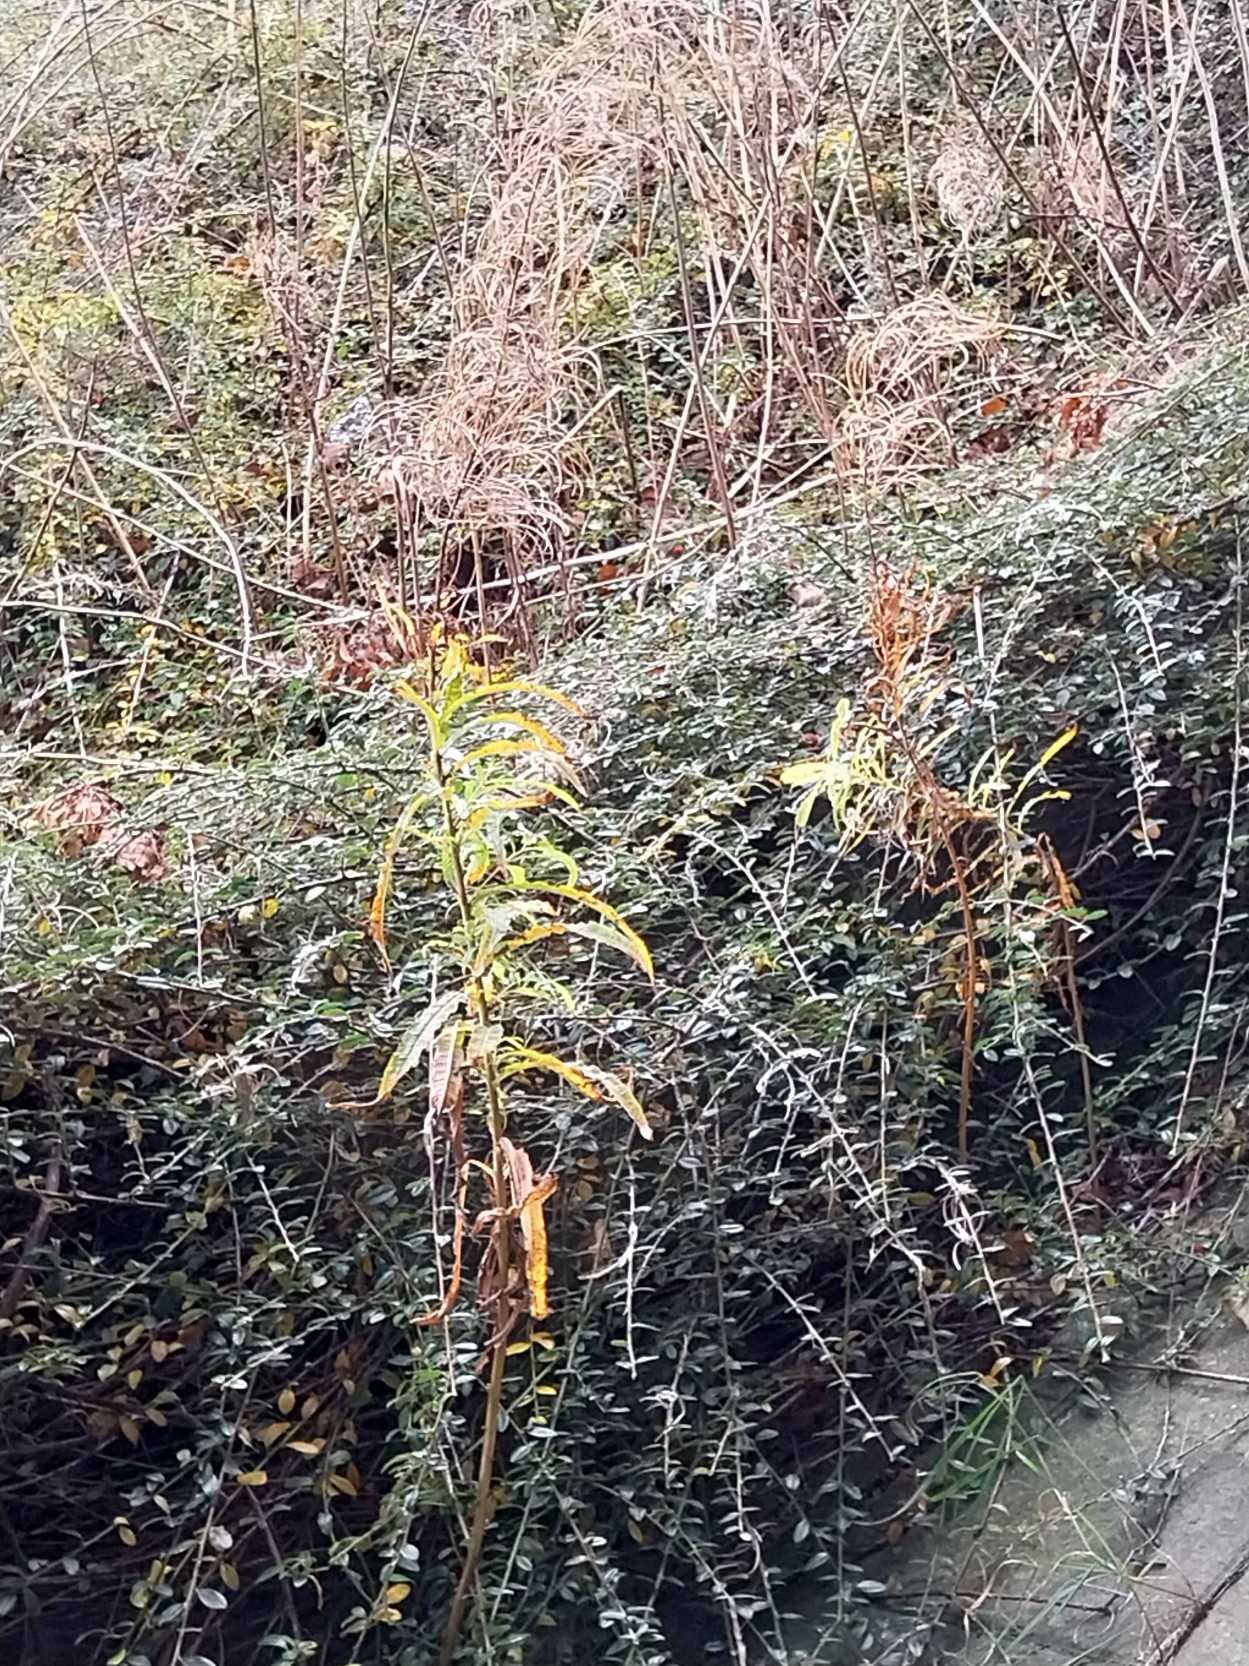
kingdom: Plantae
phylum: Tracheophyta
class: Magnoliopsida
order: Myrtales
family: Onagraceae
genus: Chamaenerion
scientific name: Chamaenerion angustifolium
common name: Gederams
